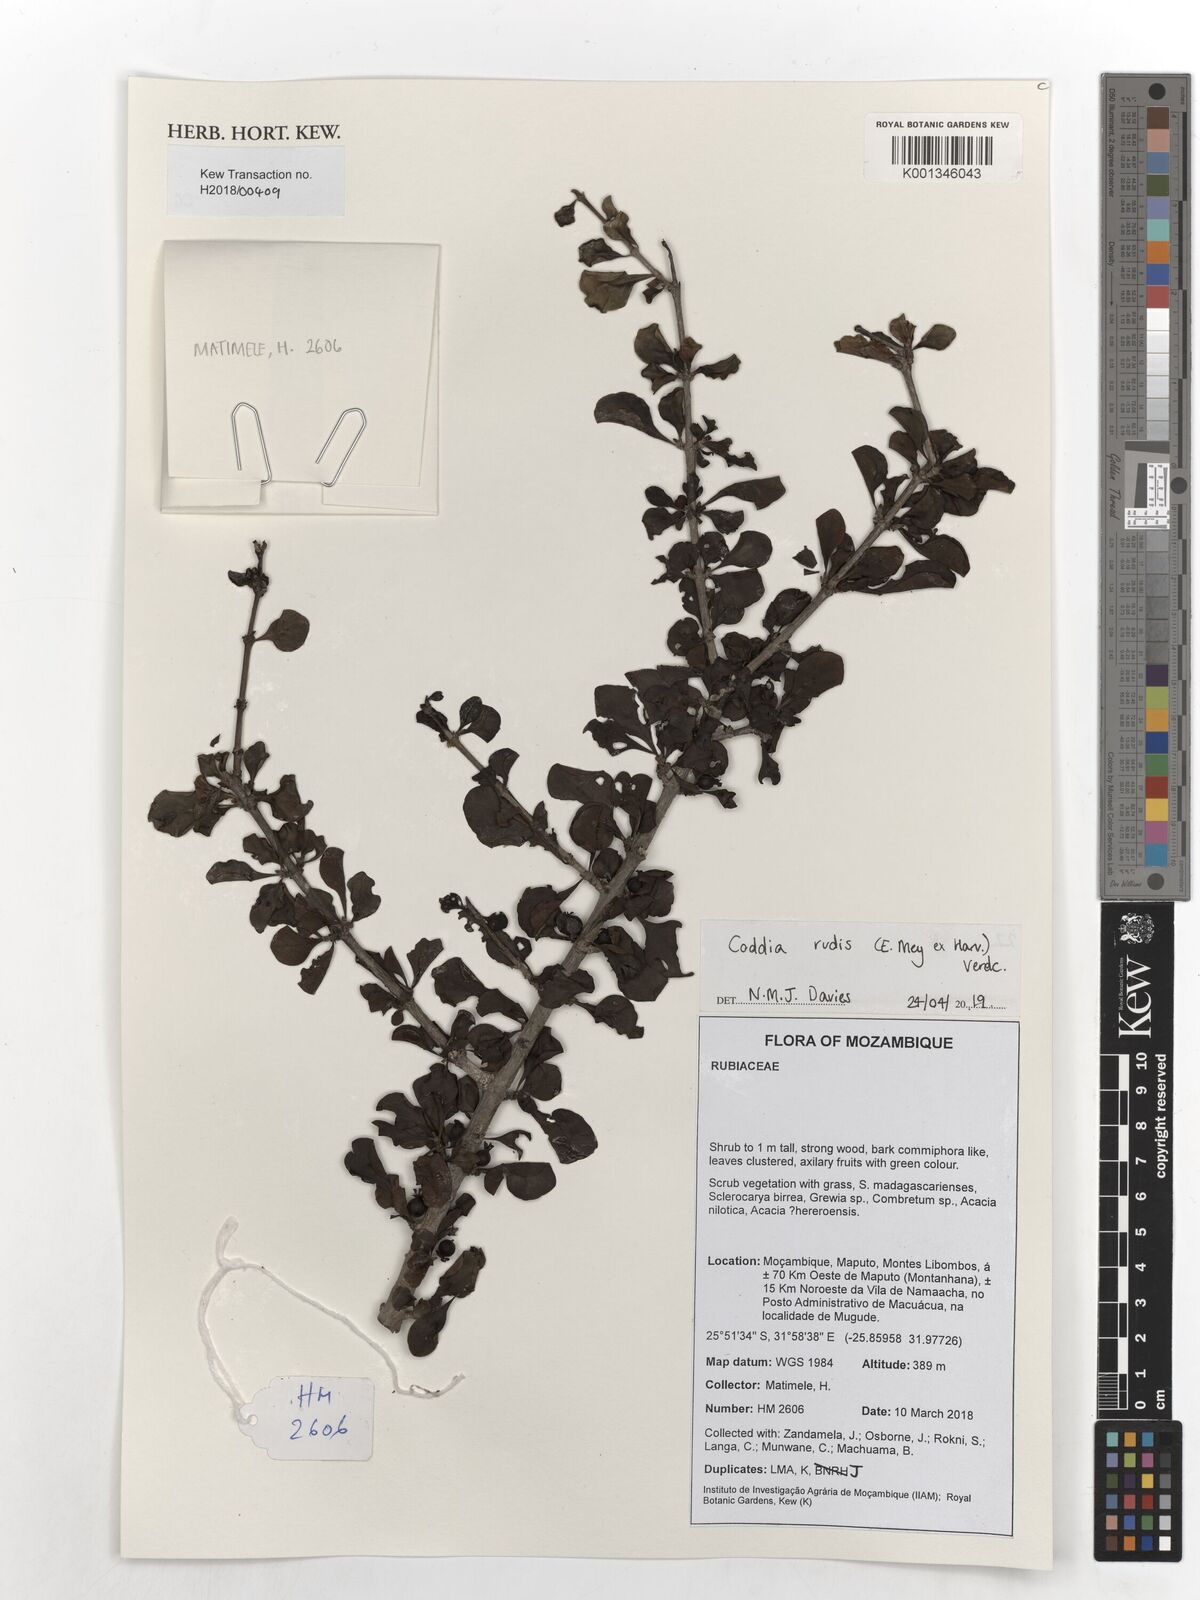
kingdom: Plantae
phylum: Tracheophyta
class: Magnoliopsida
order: Gentianales
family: Rubiaceae
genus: Coddia
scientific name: Coddia rudis
